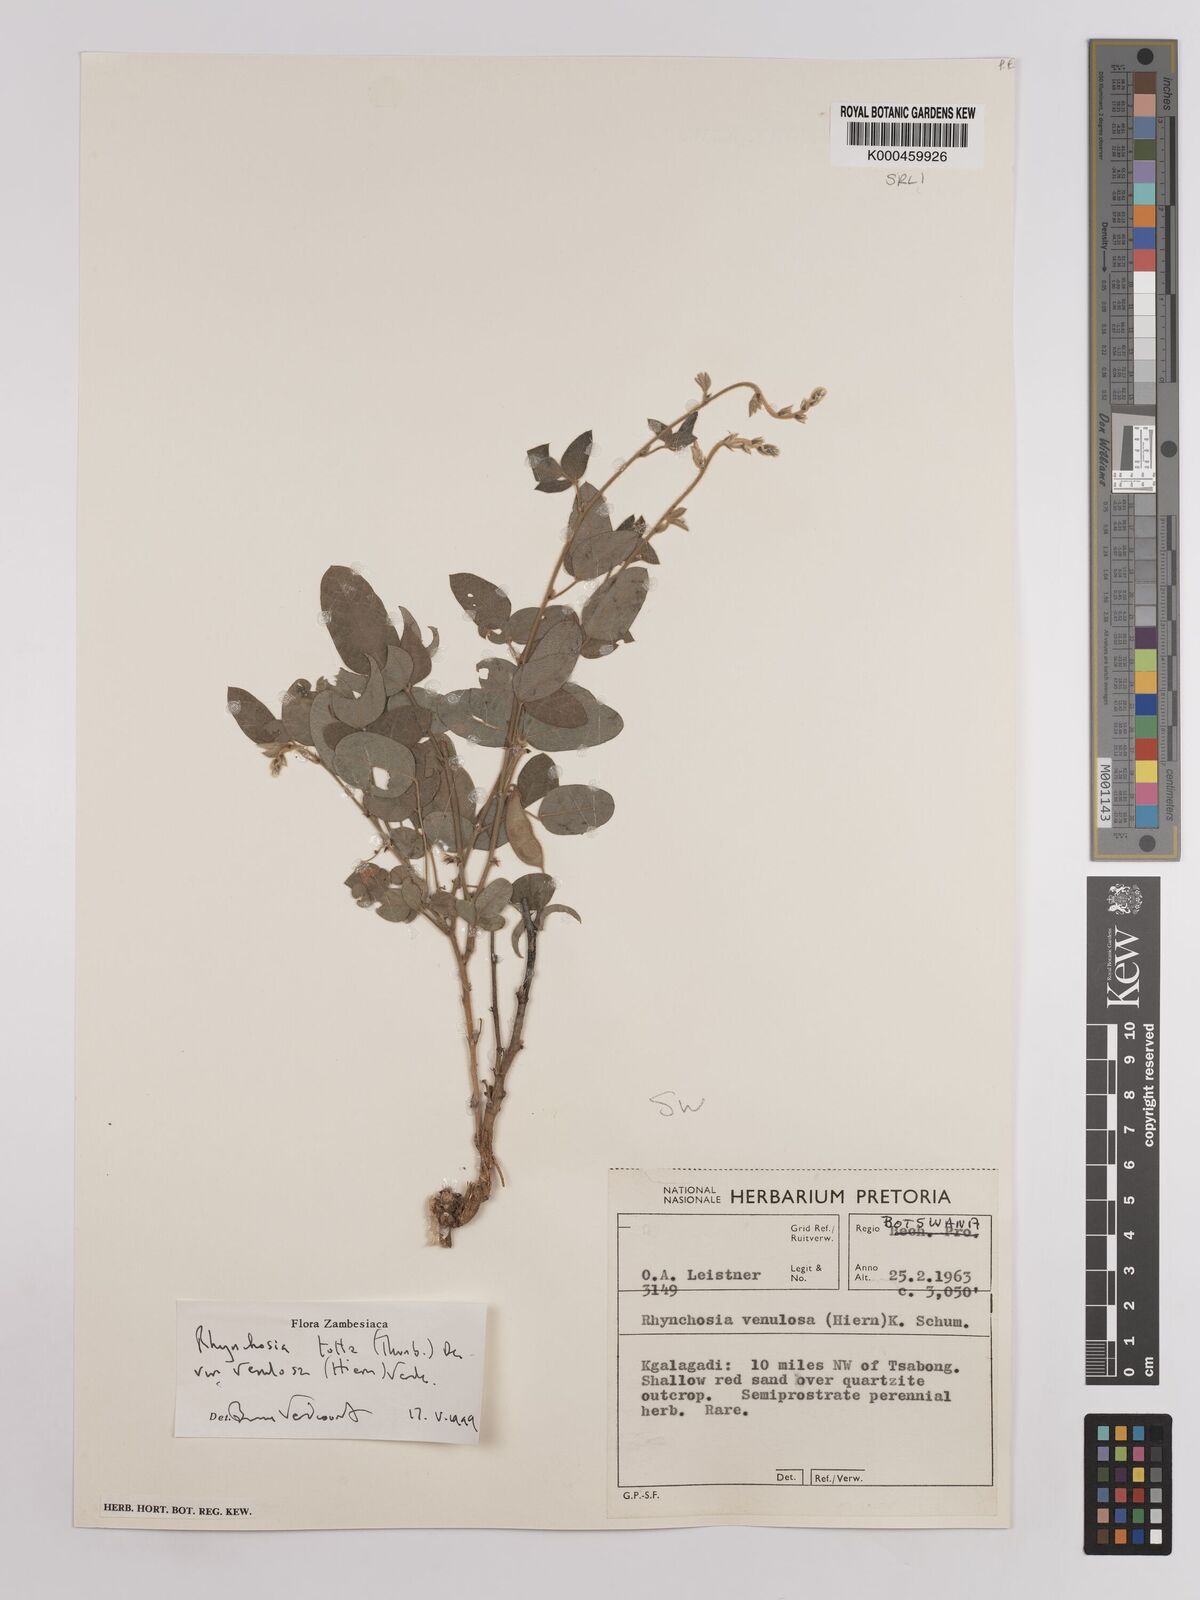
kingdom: Plantae
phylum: Tracheophyta
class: Magnoliopsida
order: Fabales
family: Fabaceae
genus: Rhynchosia
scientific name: Rhynchosia totta
